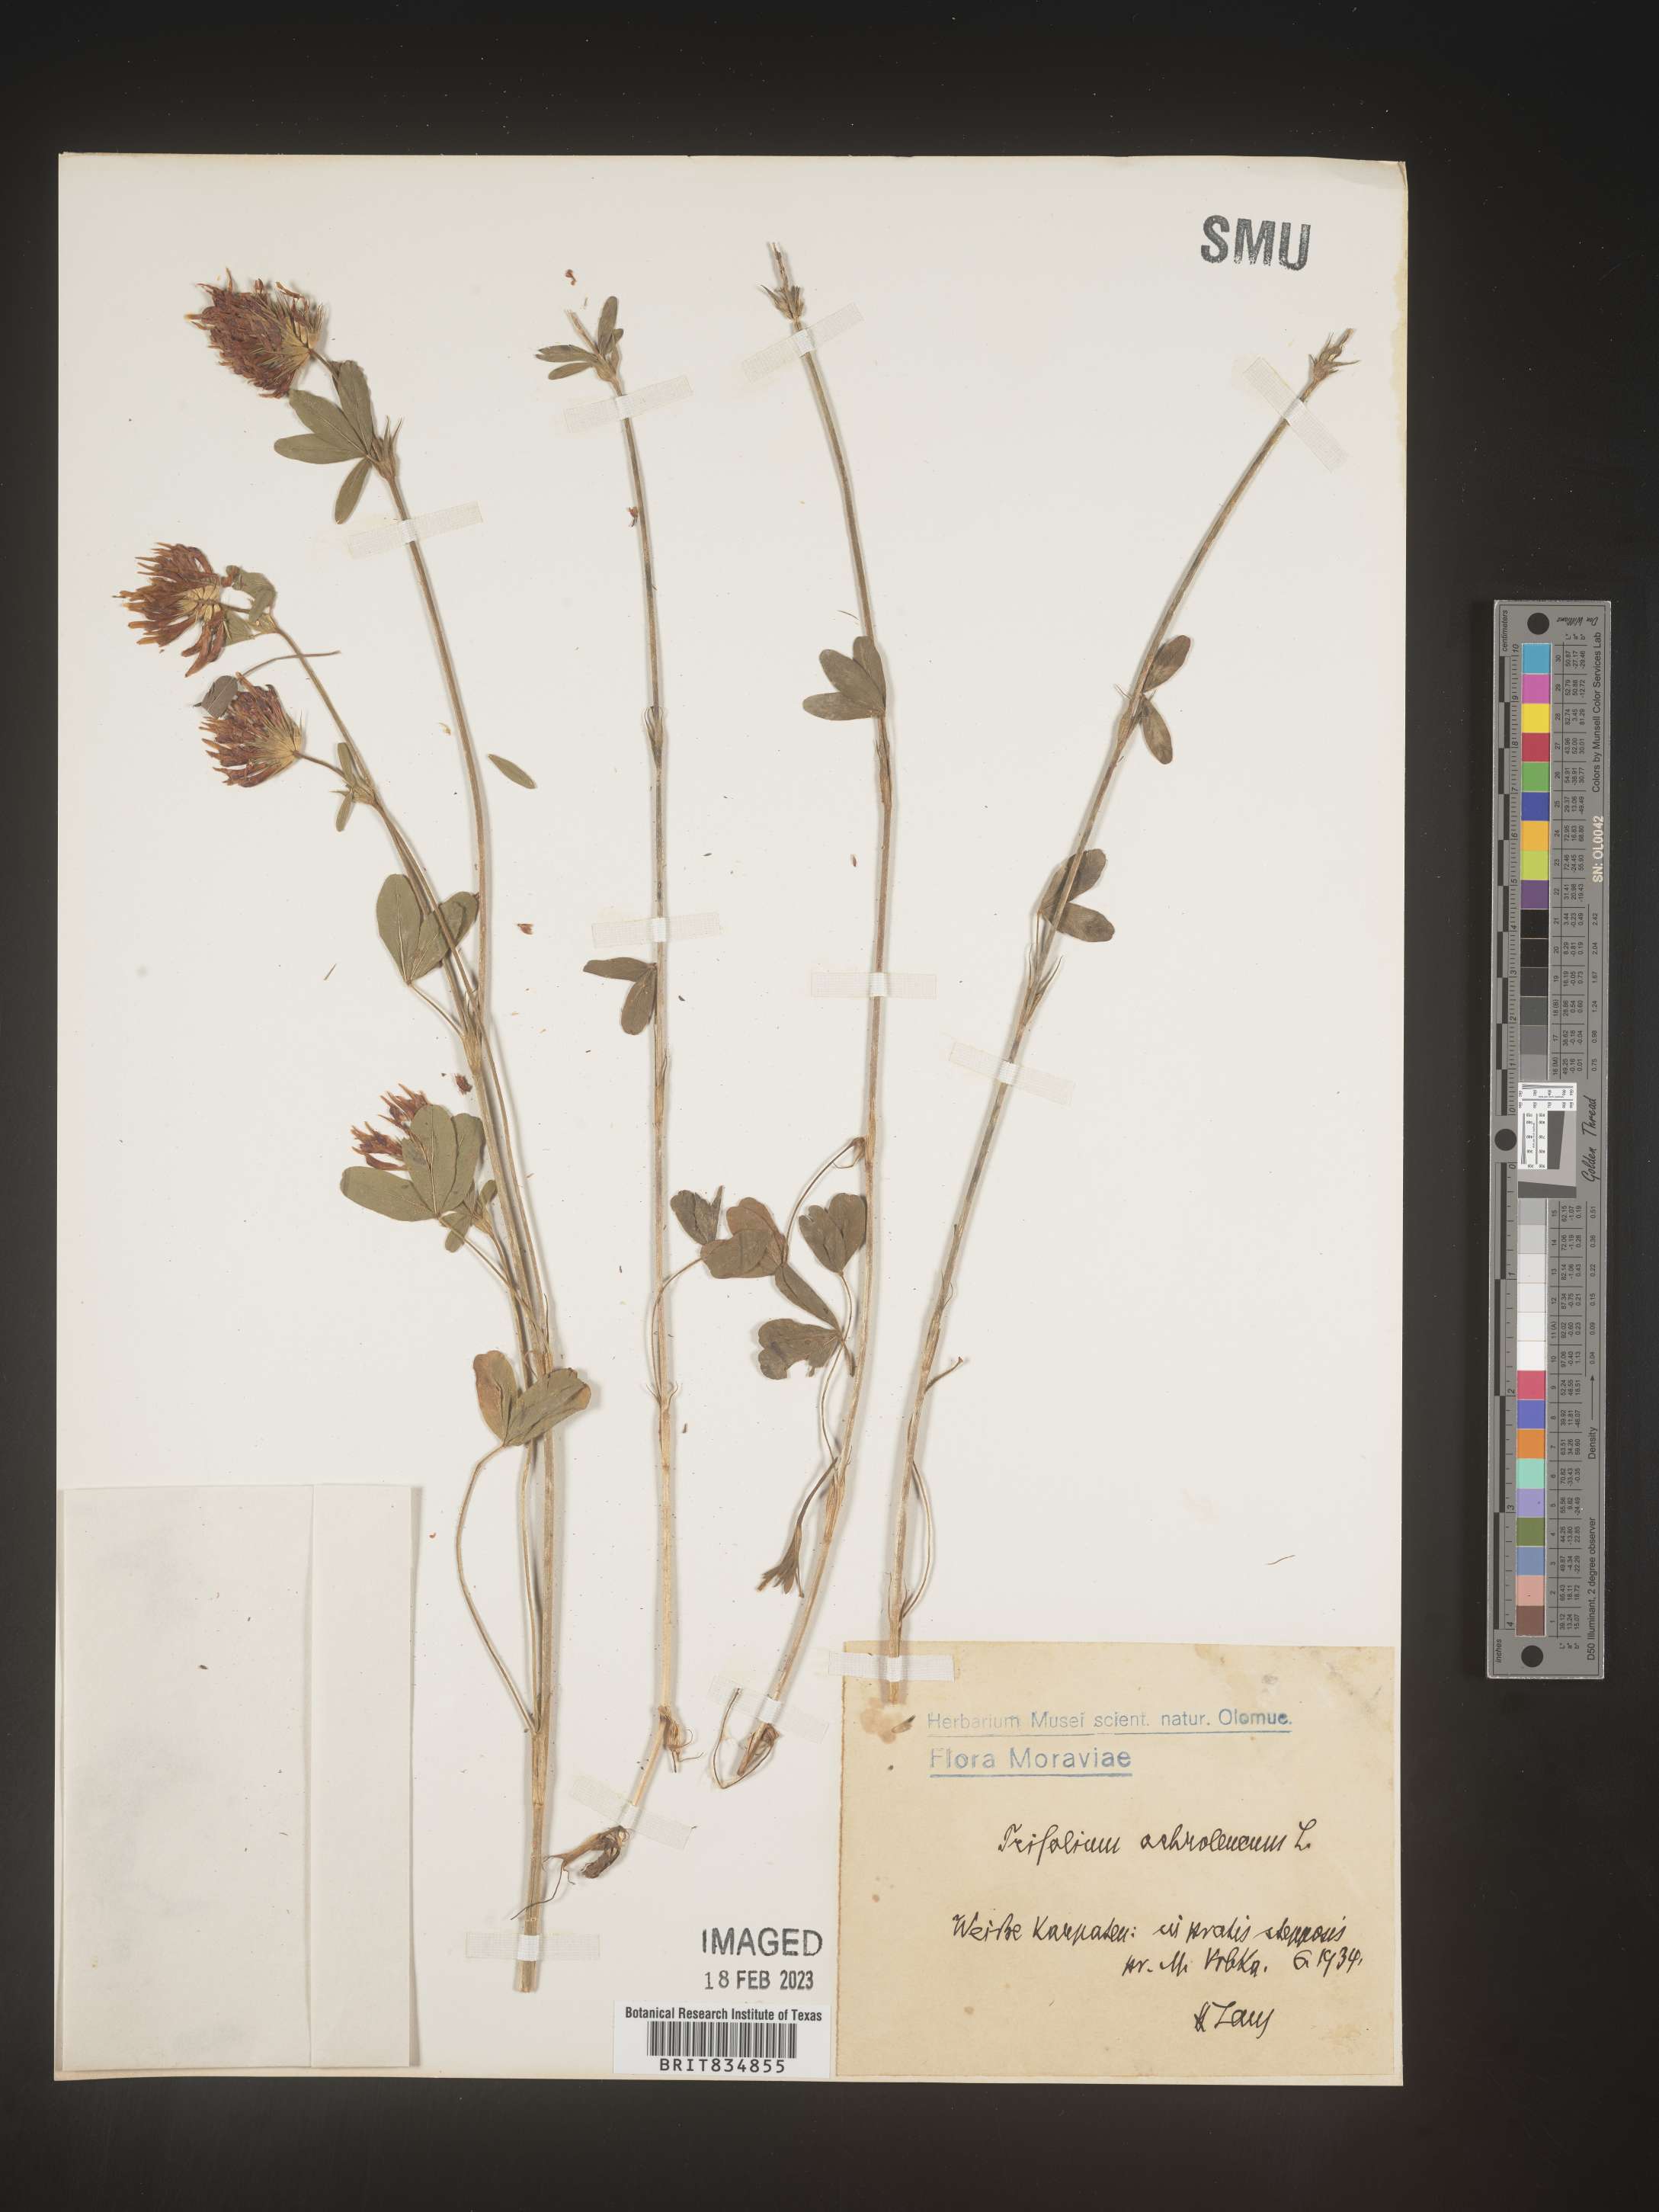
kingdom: Plantae
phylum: Tracheophyta
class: Magnoliopsida
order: Fabales
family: Fabaceae
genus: Trifolium
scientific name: Trifolium
